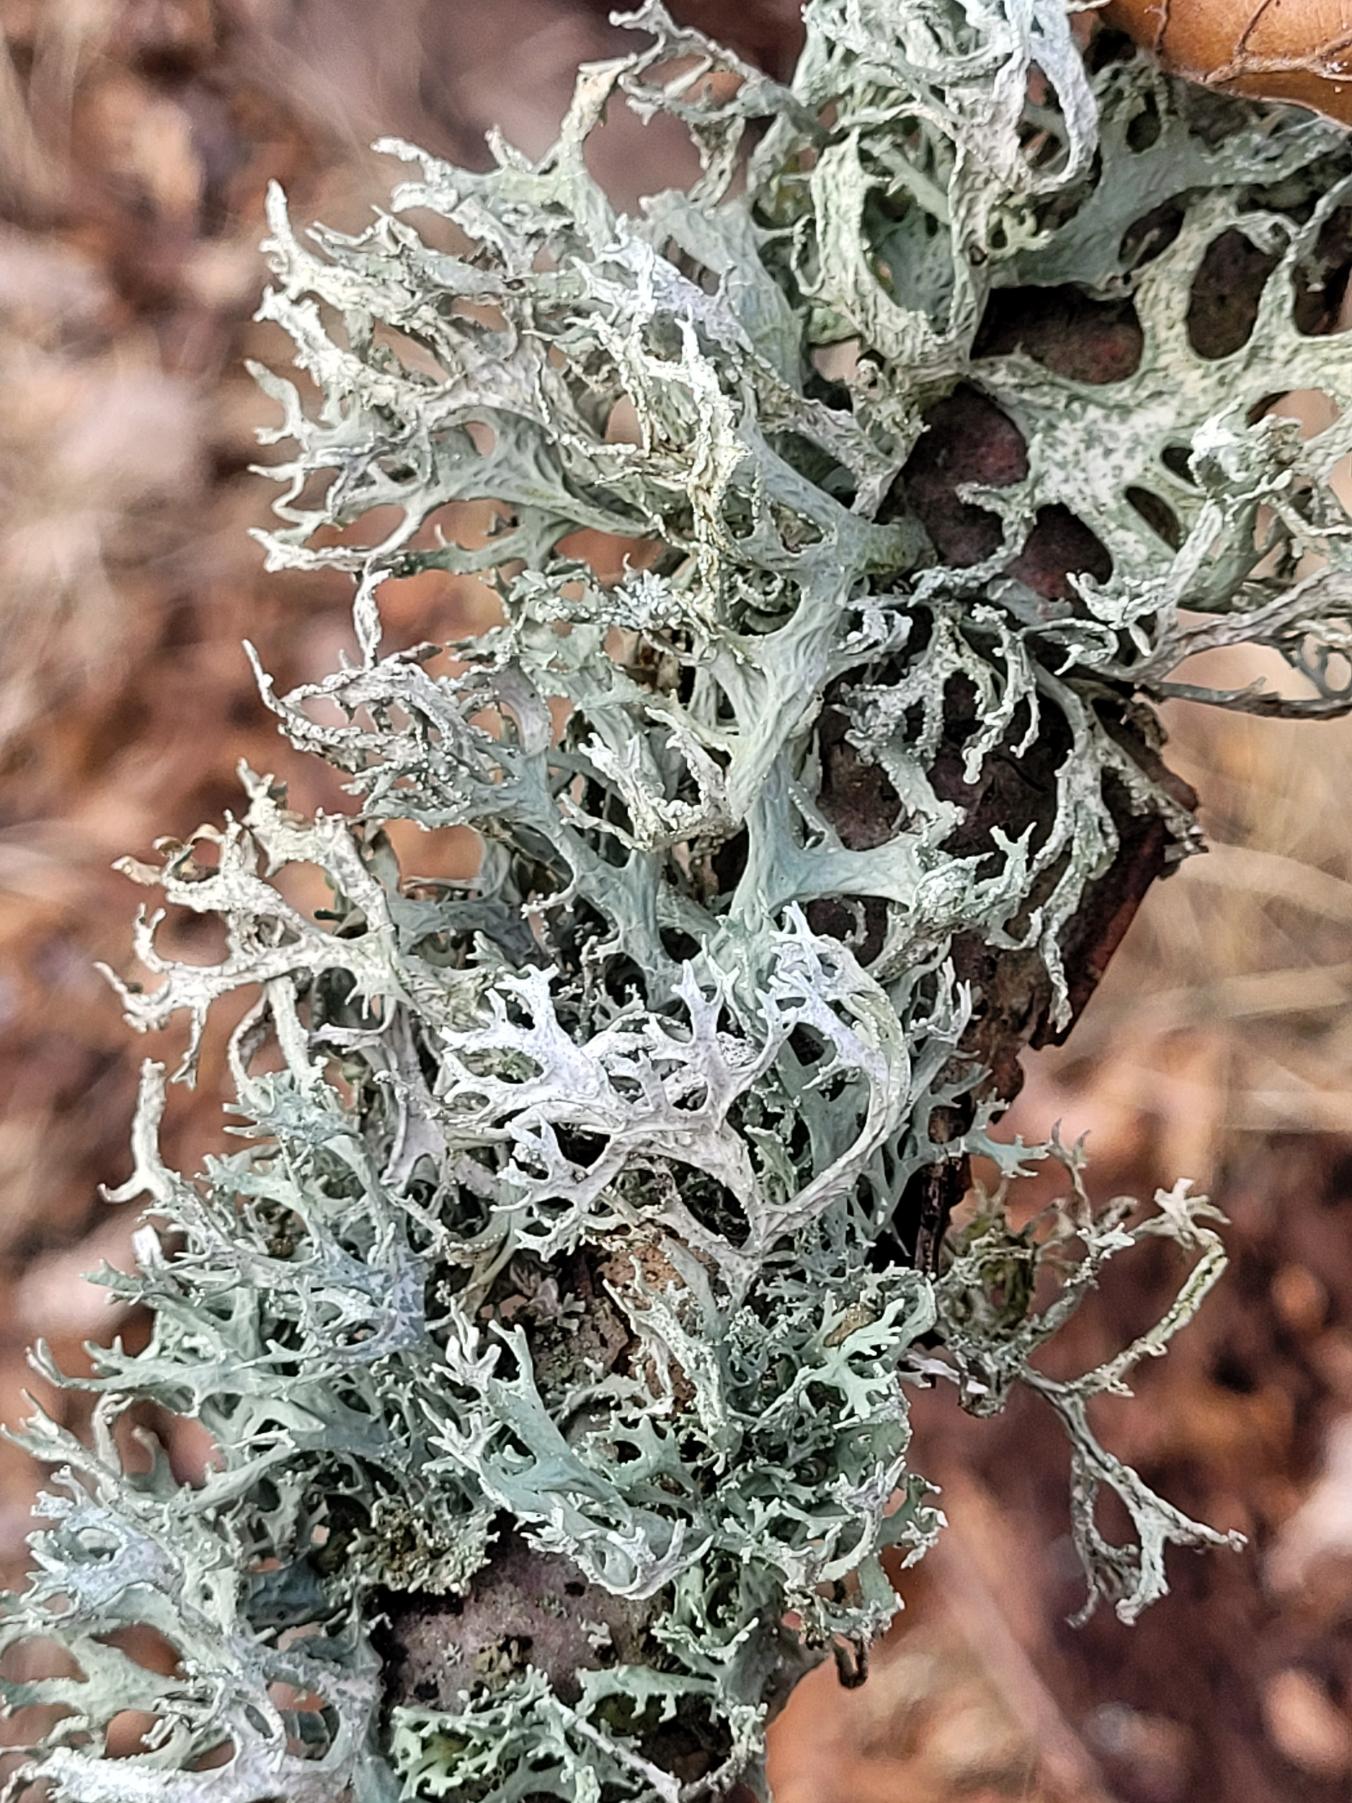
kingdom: Fungi
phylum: Ascomycota
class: Lecanoromycetes
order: Lecanorales
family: Parmeliaceae
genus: Evernia
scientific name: Evernia prunastri
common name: Almindelig slåenlav
